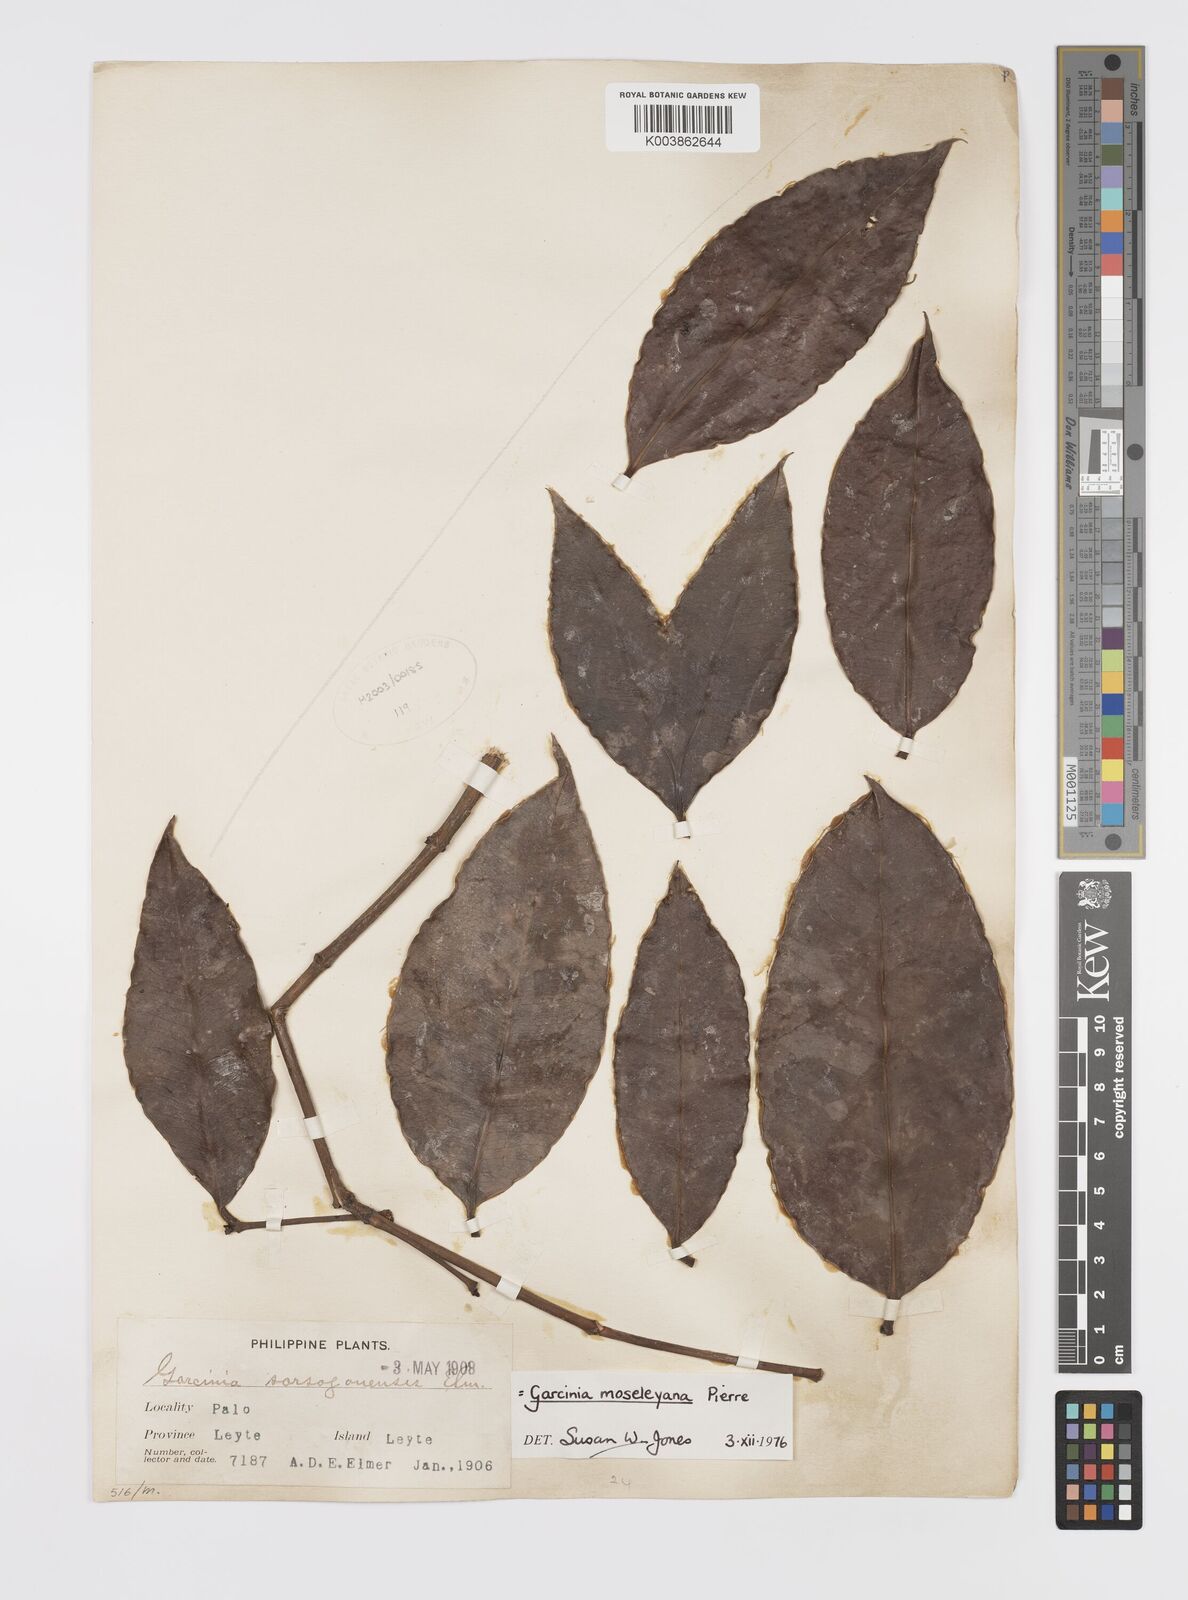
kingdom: Plantae
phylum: Tracheophyta
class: Magnoliopsida
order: Malpighiales
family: Clusiaceae
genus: Garcinia
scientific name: Garcinia
